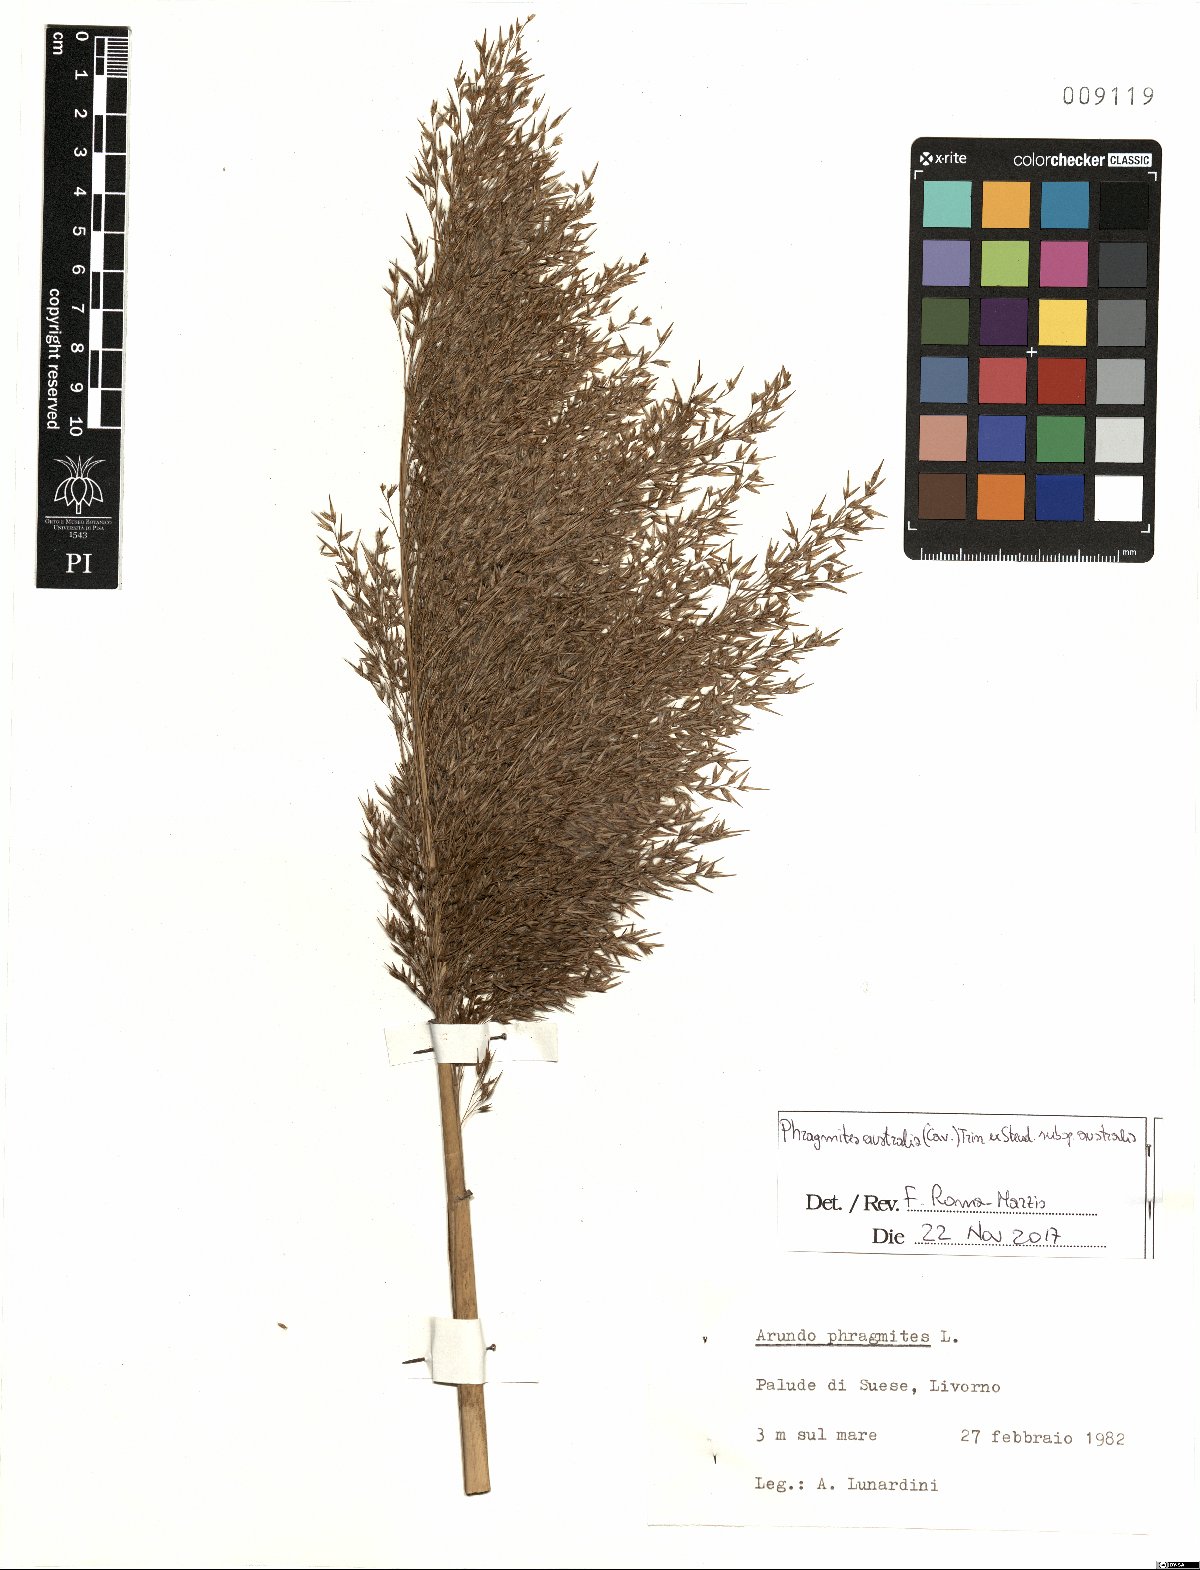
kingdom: Plantae
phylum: Tracheophyta
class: Liliopsida
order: Poales
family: Poaceae
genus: Phragmites
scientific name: Phragmites australis
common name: Common reed
